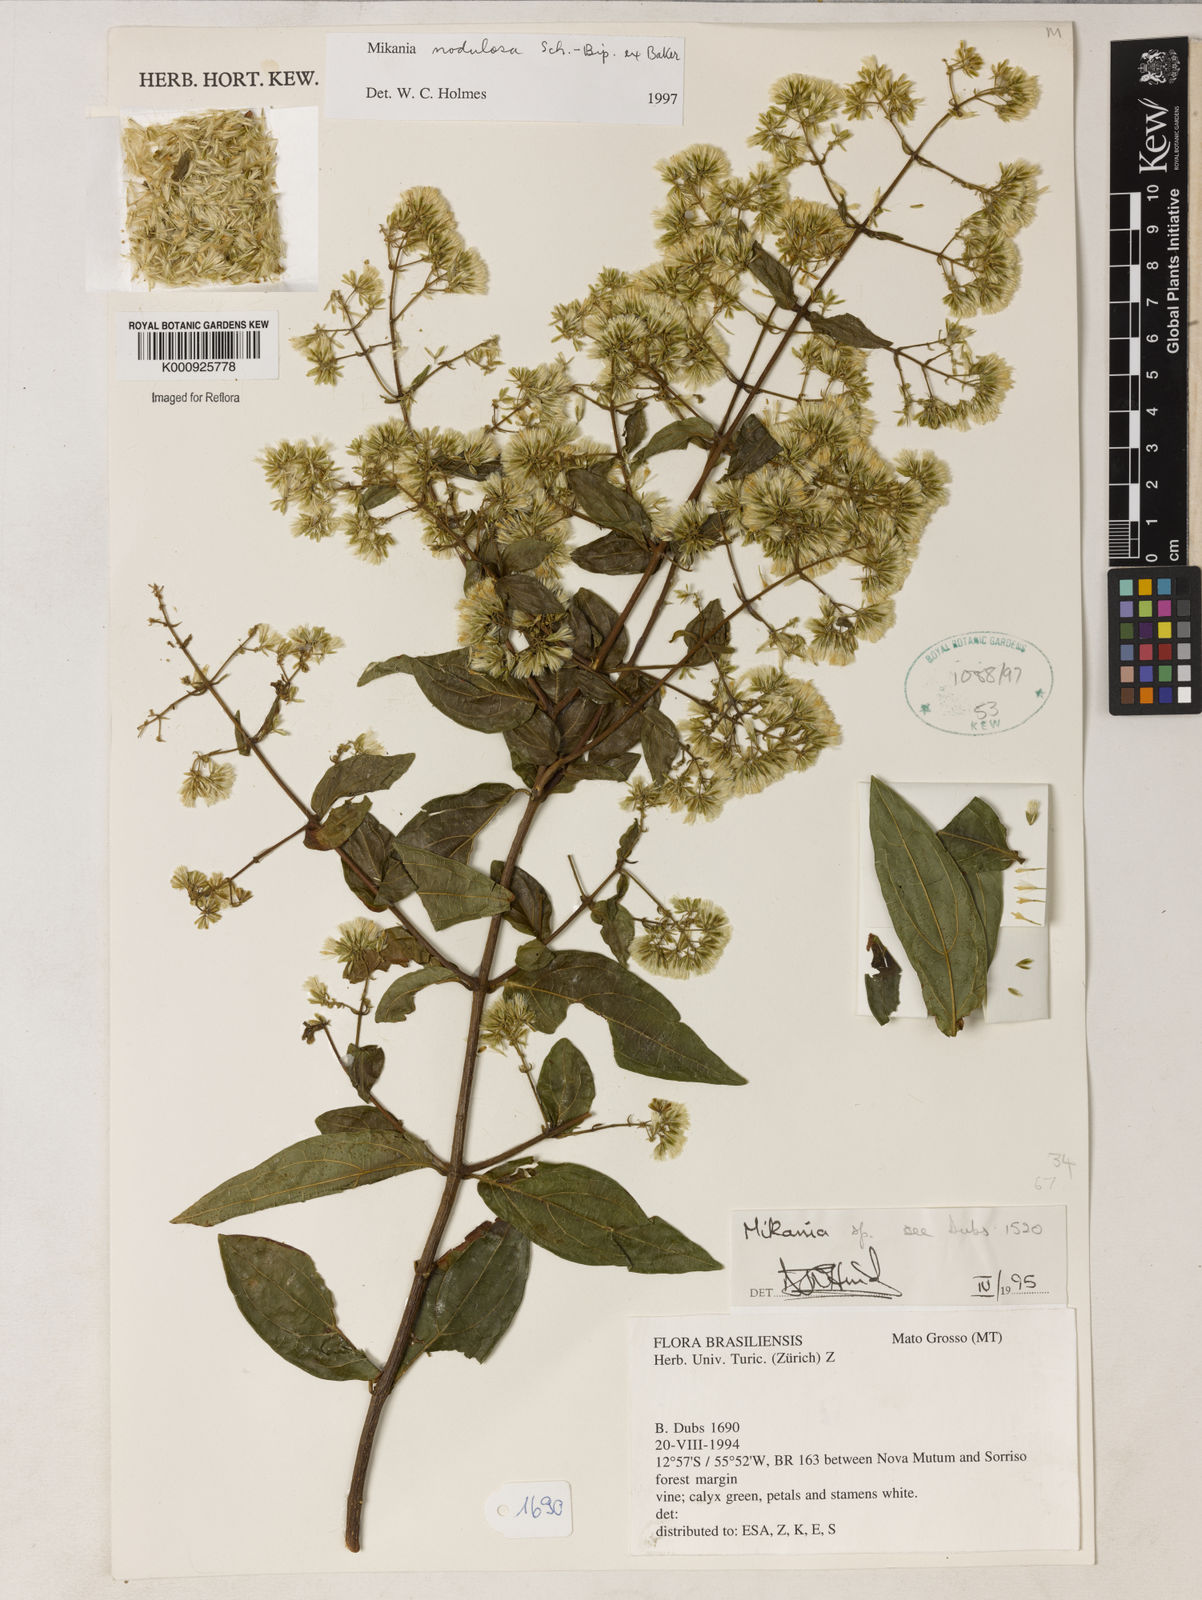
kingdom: Plantae
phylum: Tracheophyta
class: Magnoliopsida
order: Asterales
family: Asteraceae
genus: Mikania
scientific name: Mikania
